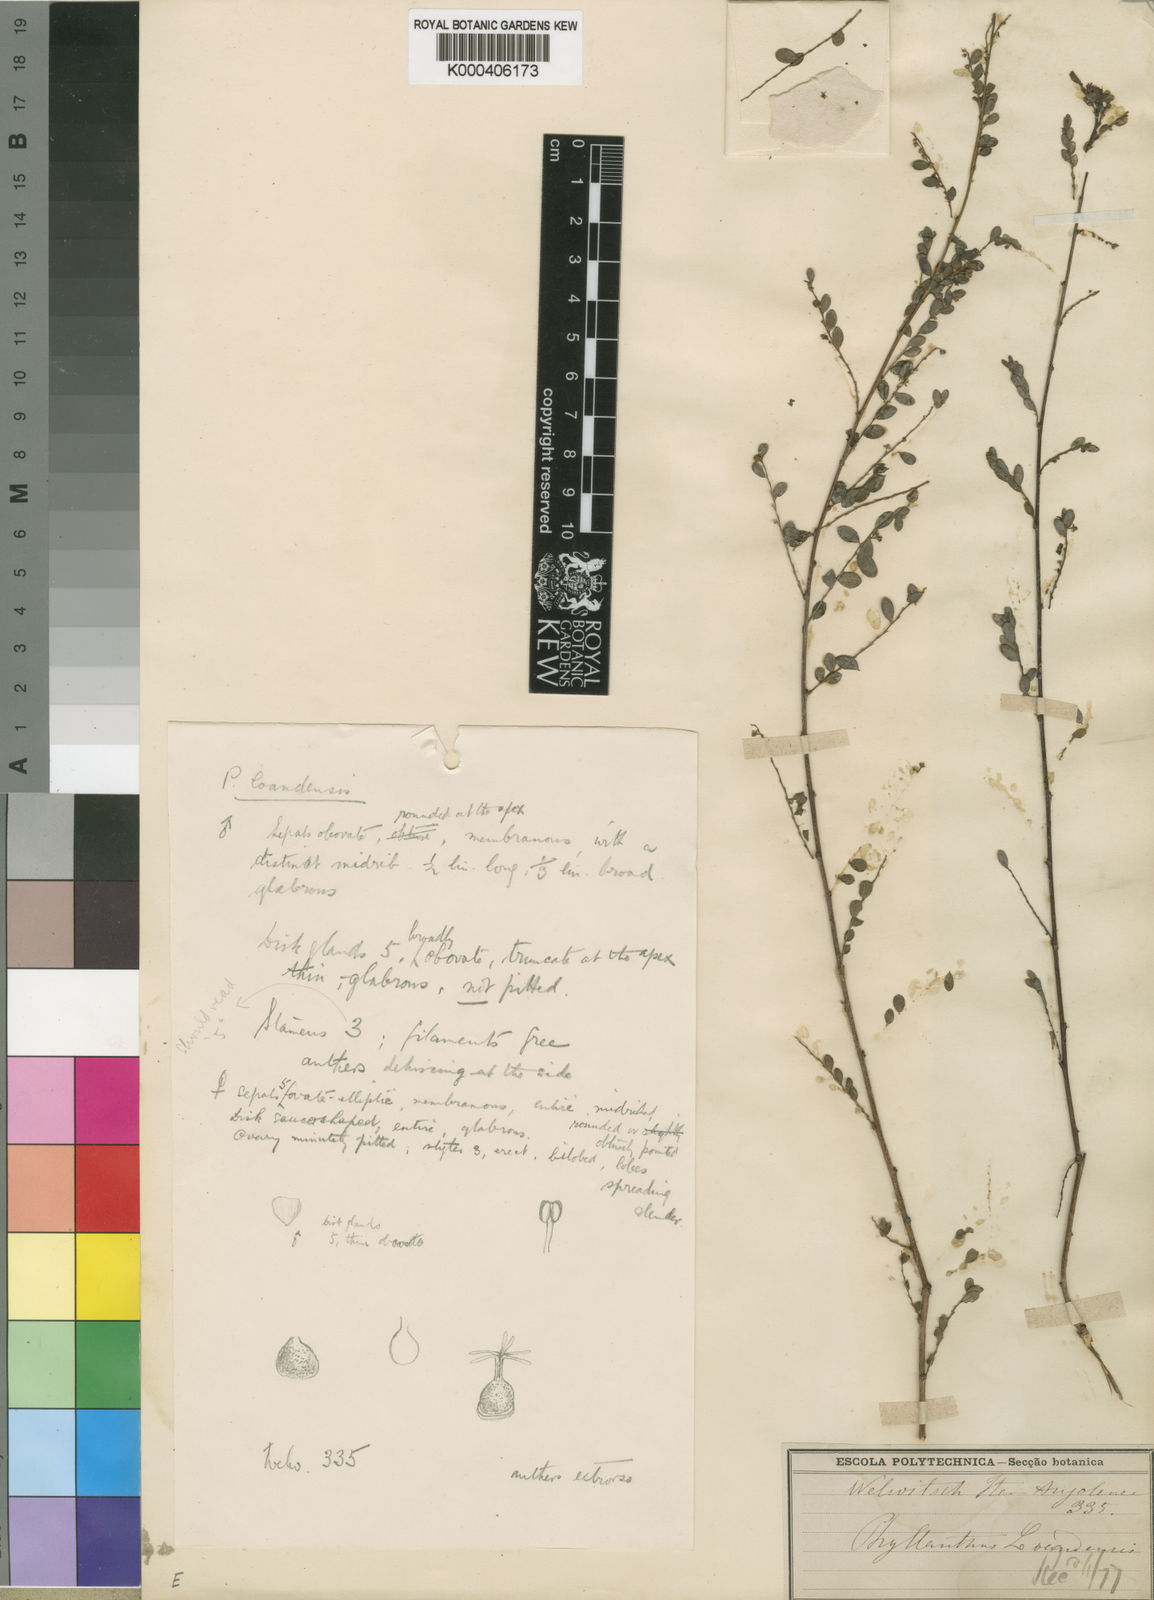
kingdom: Plantae
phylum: Tracheophyta
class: Magnoliopsida
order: Malpighiales
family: Phyllanthaceae
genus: Phyllanthus
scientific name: Phyllanthus
